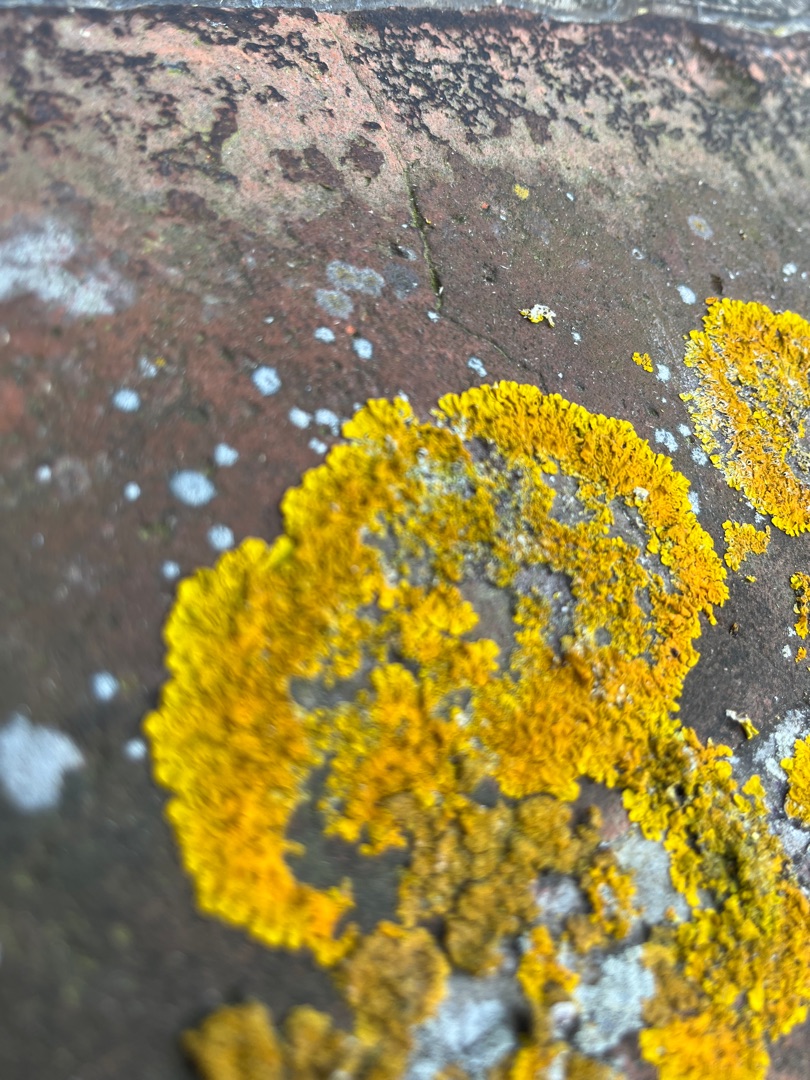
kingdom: Fungi
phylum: Ascomycota
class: Lecanoromycetes
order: Teloschistales
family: Teloschistaceae
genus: Xanthoria
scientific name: Xanthoria parietina
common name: Almindelig væggelav
